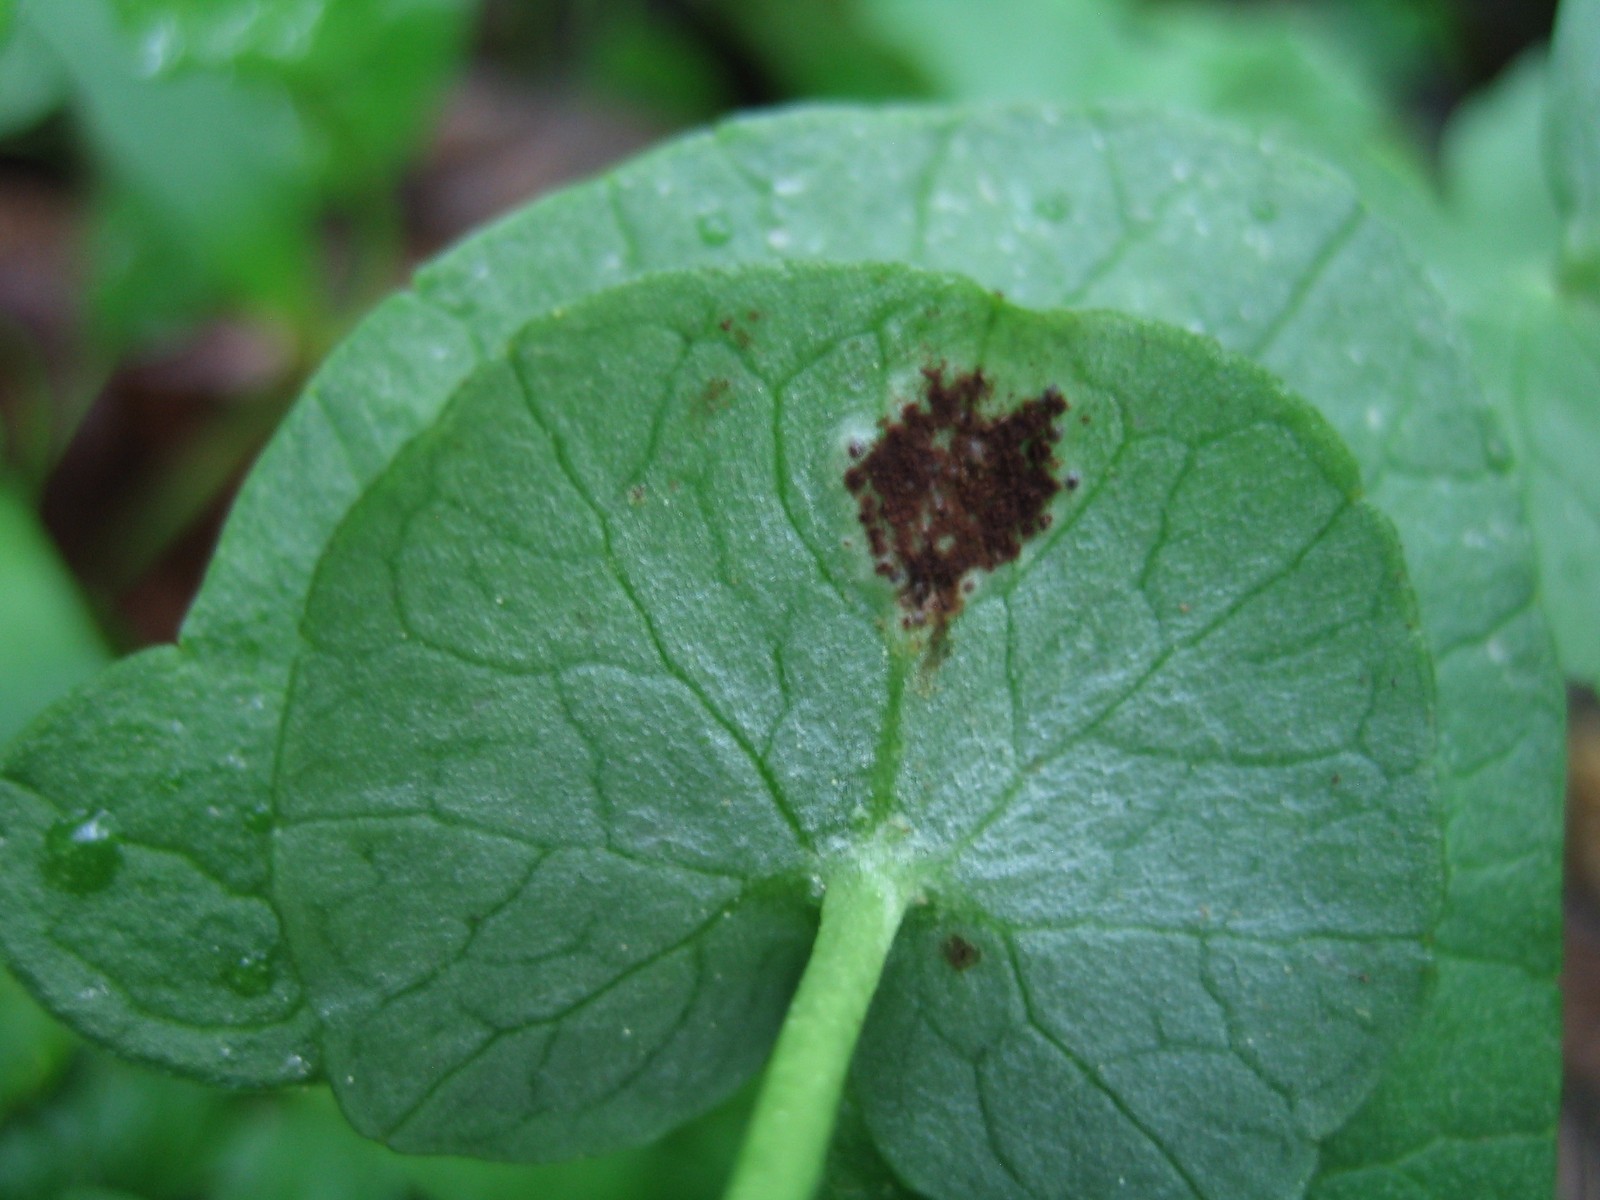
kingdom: Fungi
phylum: Basidiomycota
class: Pucciniomycetes
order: Pucciniales
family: Pucciniaceae
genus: Uromyces
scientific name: Uromyces ficariae
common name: vorterod-encellerust
